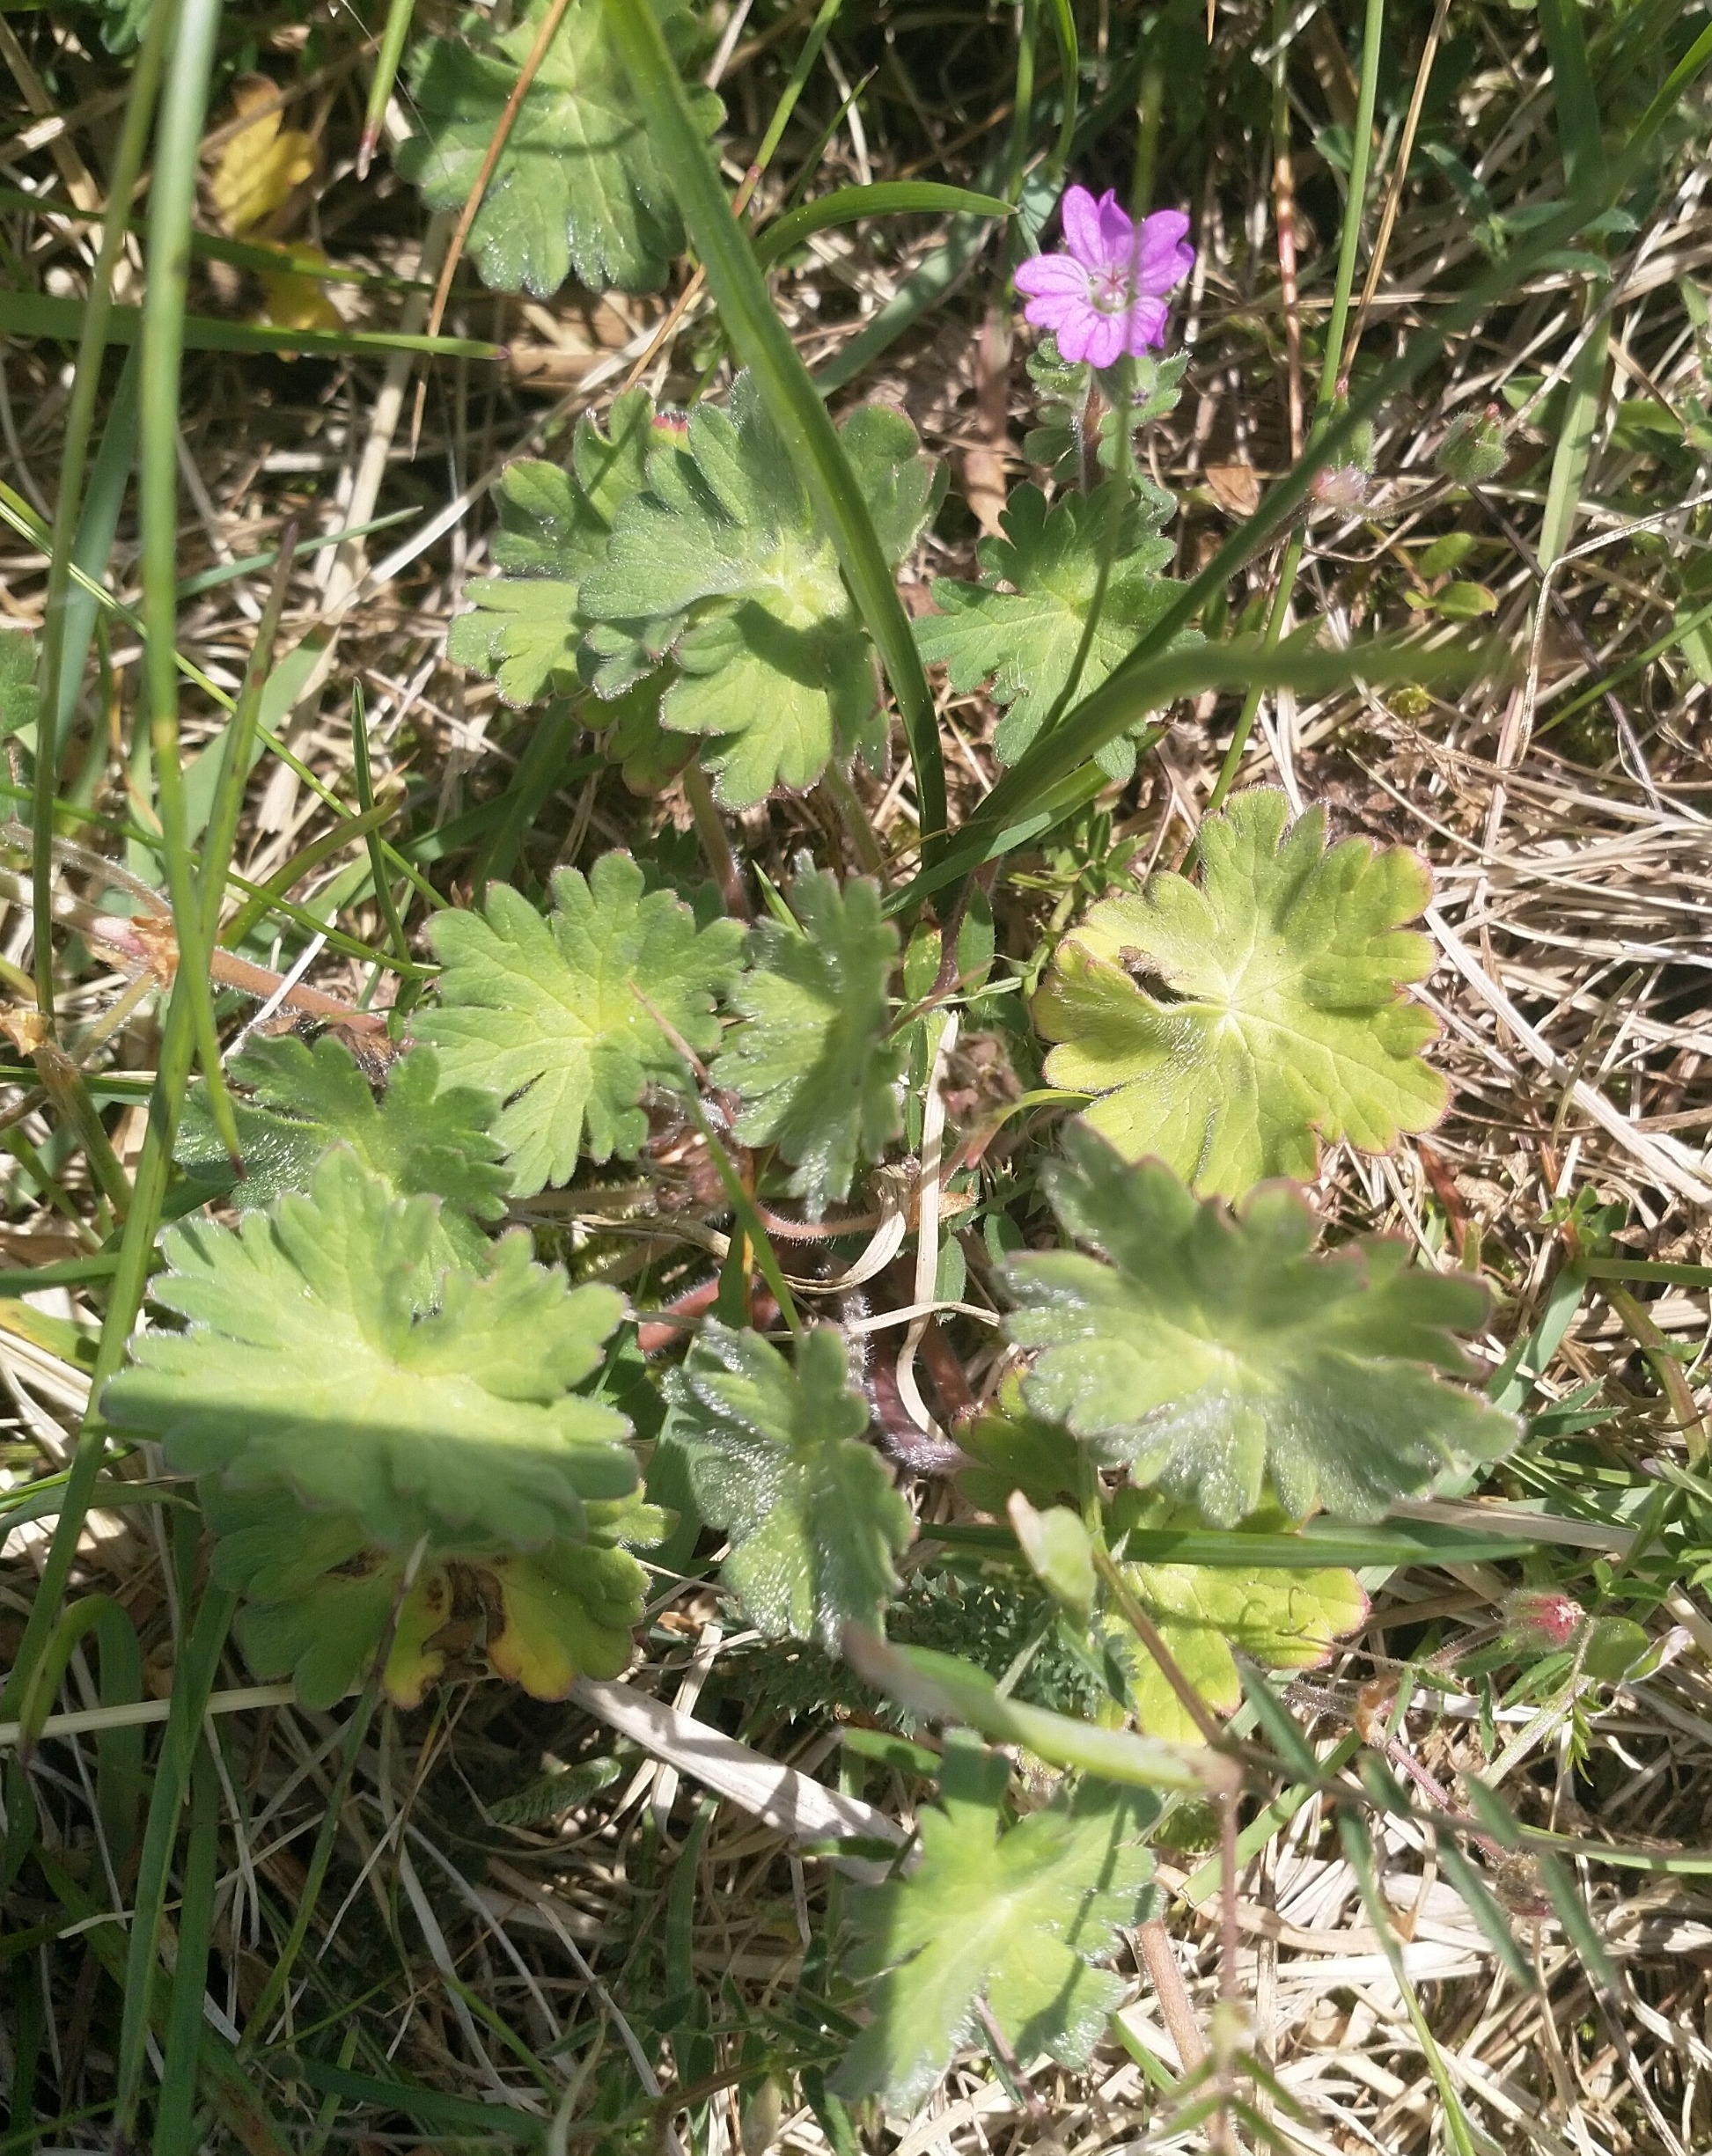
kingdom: Plantae
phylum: Tracheophyta
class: Magnoliopsida
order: Geraniales
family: Geraniaceae
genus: Geranium
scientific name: Geranium molle
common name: Blød storkenæb
